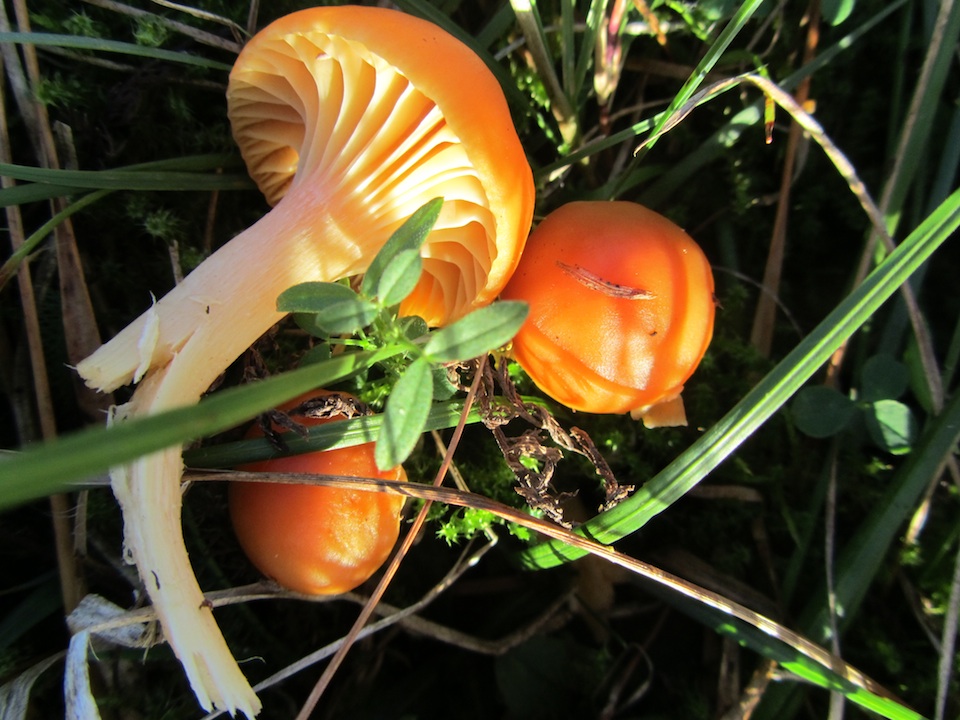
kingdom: Fungi
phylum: Basidiomycota
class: Agaricomycetes
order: Agaricales
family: Hygrophoraceae
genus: Cuphophyllus
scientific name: Cuphophyllus pratensis
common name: eng-vokshat
